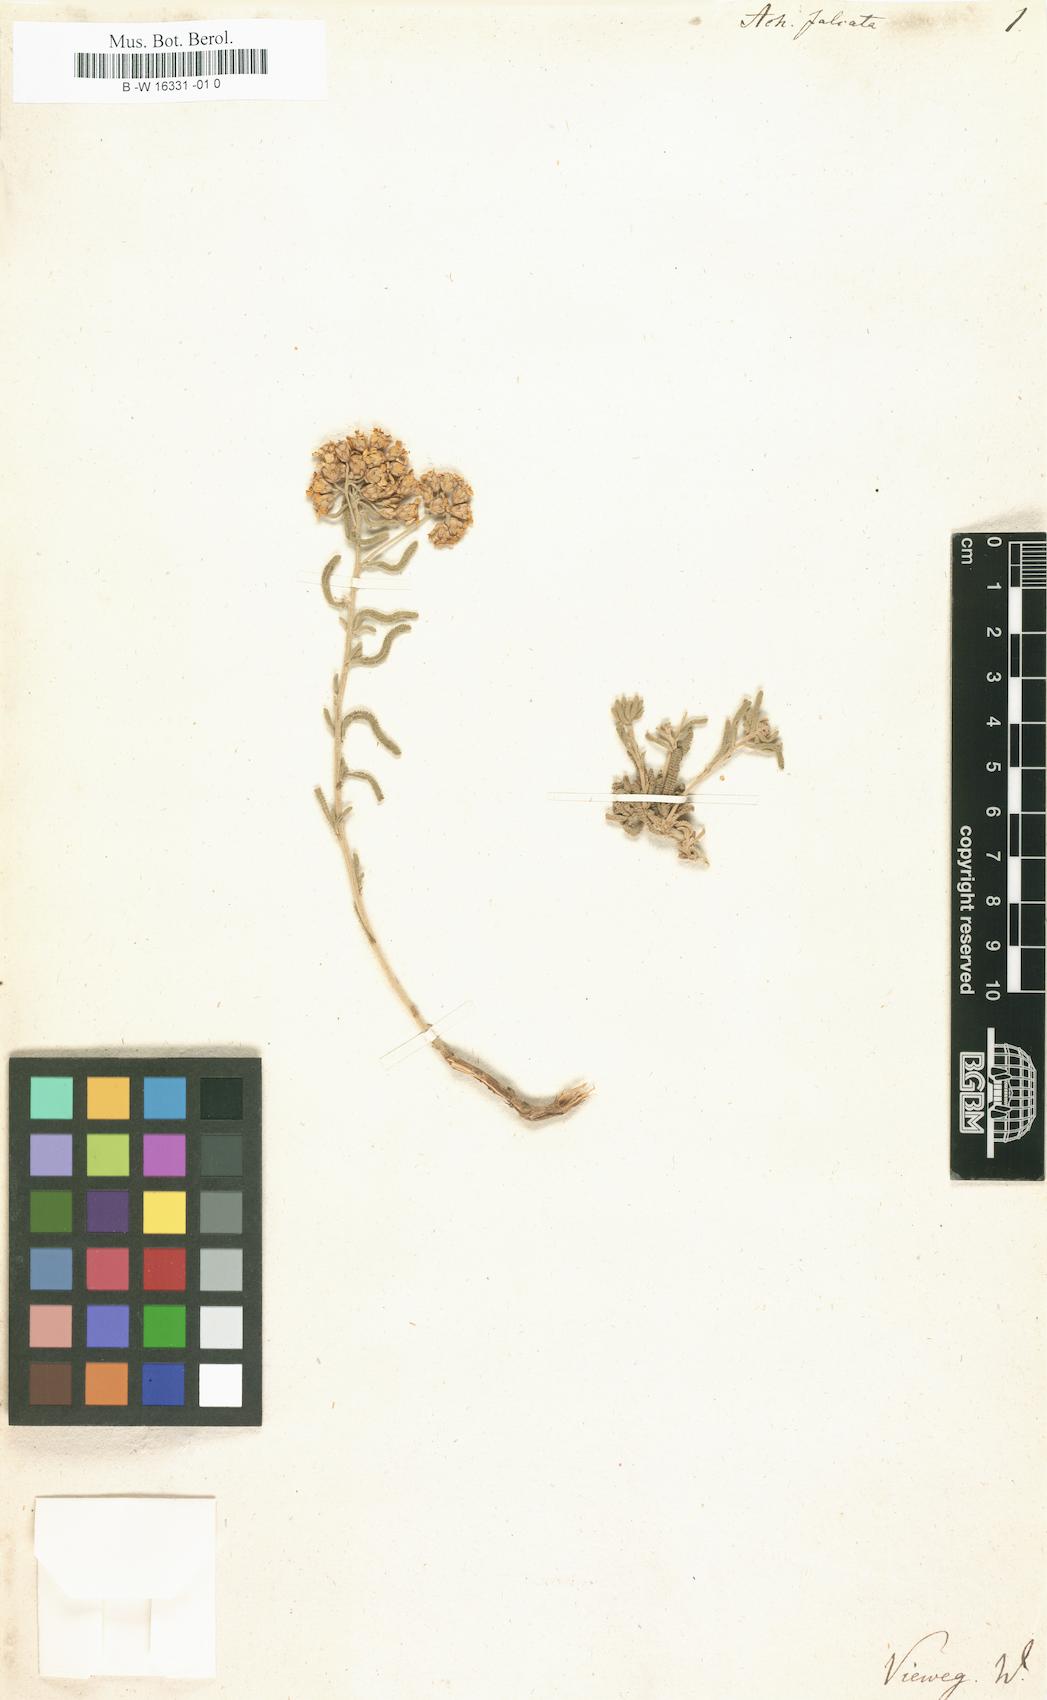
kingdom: Plantae
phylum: Tracheophyta
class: Magnoliopsida
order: Asterales
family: Asteraceae
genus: Achillea
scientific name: Achillea falcata
